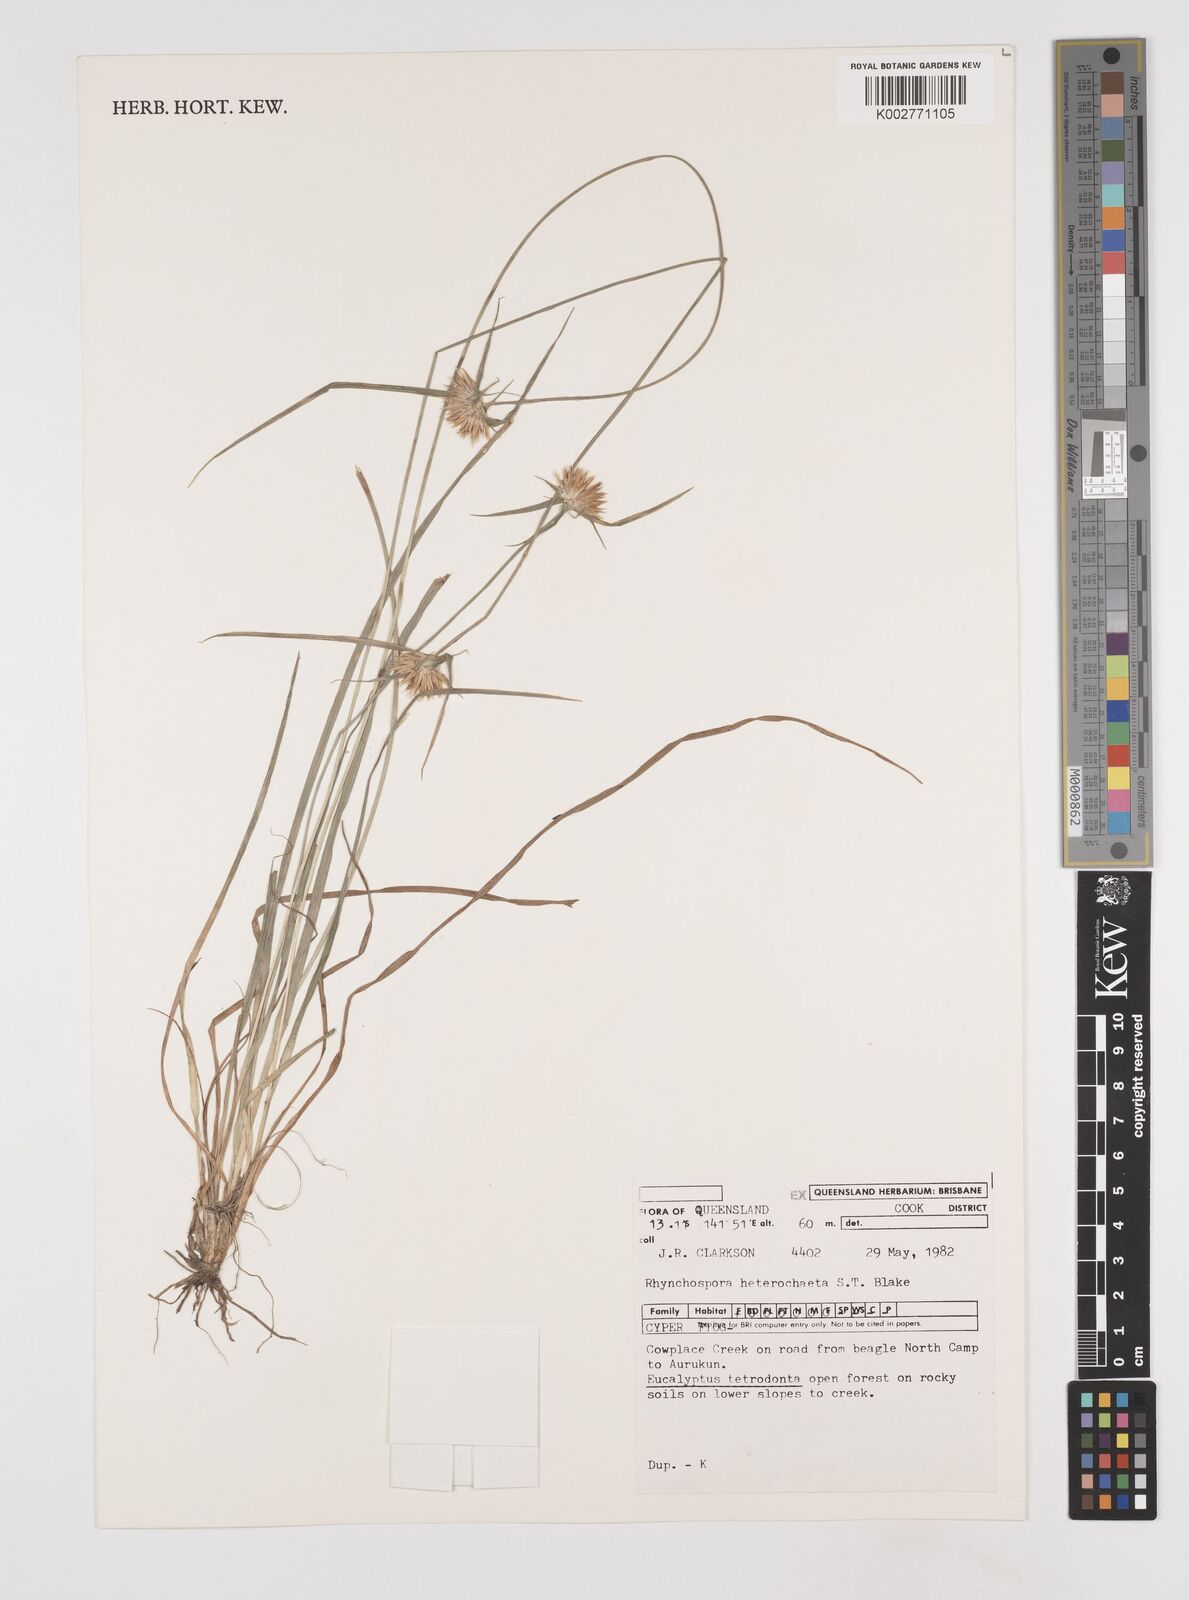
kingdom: Plantae
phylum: Tracheophyta
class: Liliopsida
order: Poales
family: Cyperaceae
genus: Rhynchospora
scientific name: Rhynchospora heterochaeta
